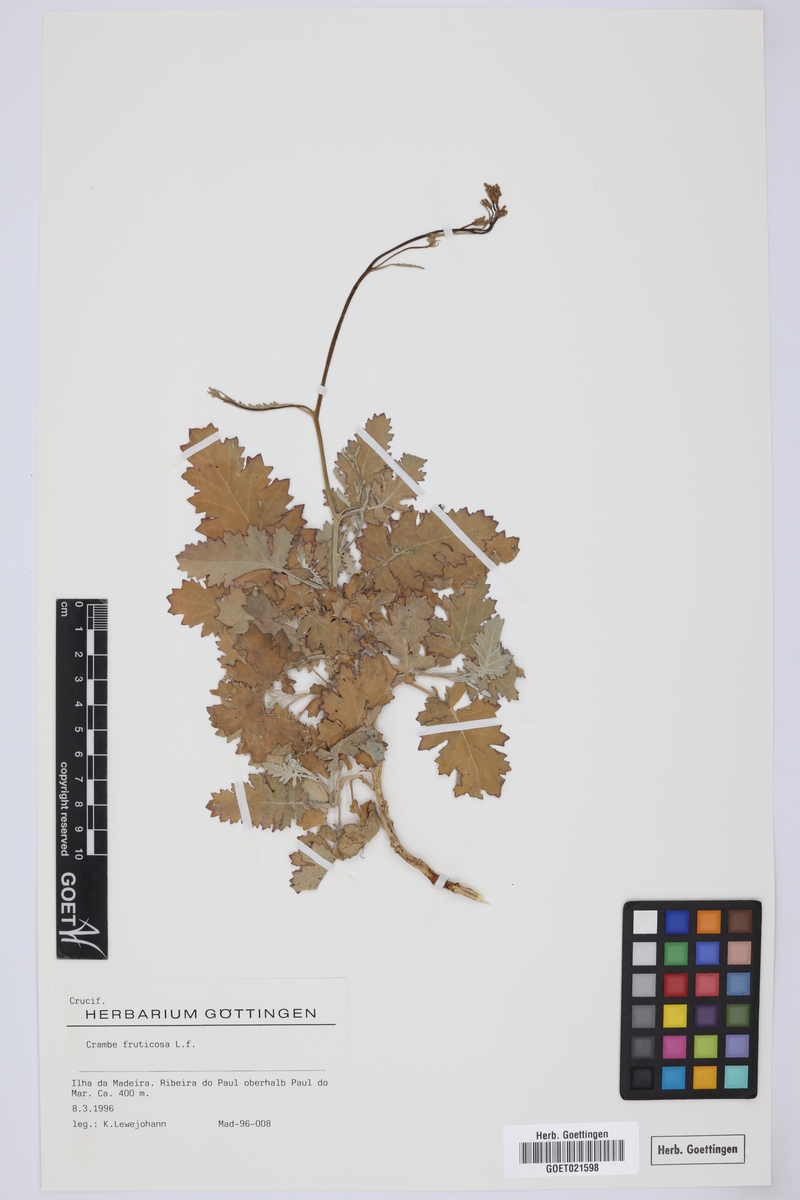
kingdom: Plantae
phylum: Tracheophyta
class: Magnoliopsida
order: Brassicales
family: Brassicaceae
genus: Crambe
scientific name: Crambe fruticosa
